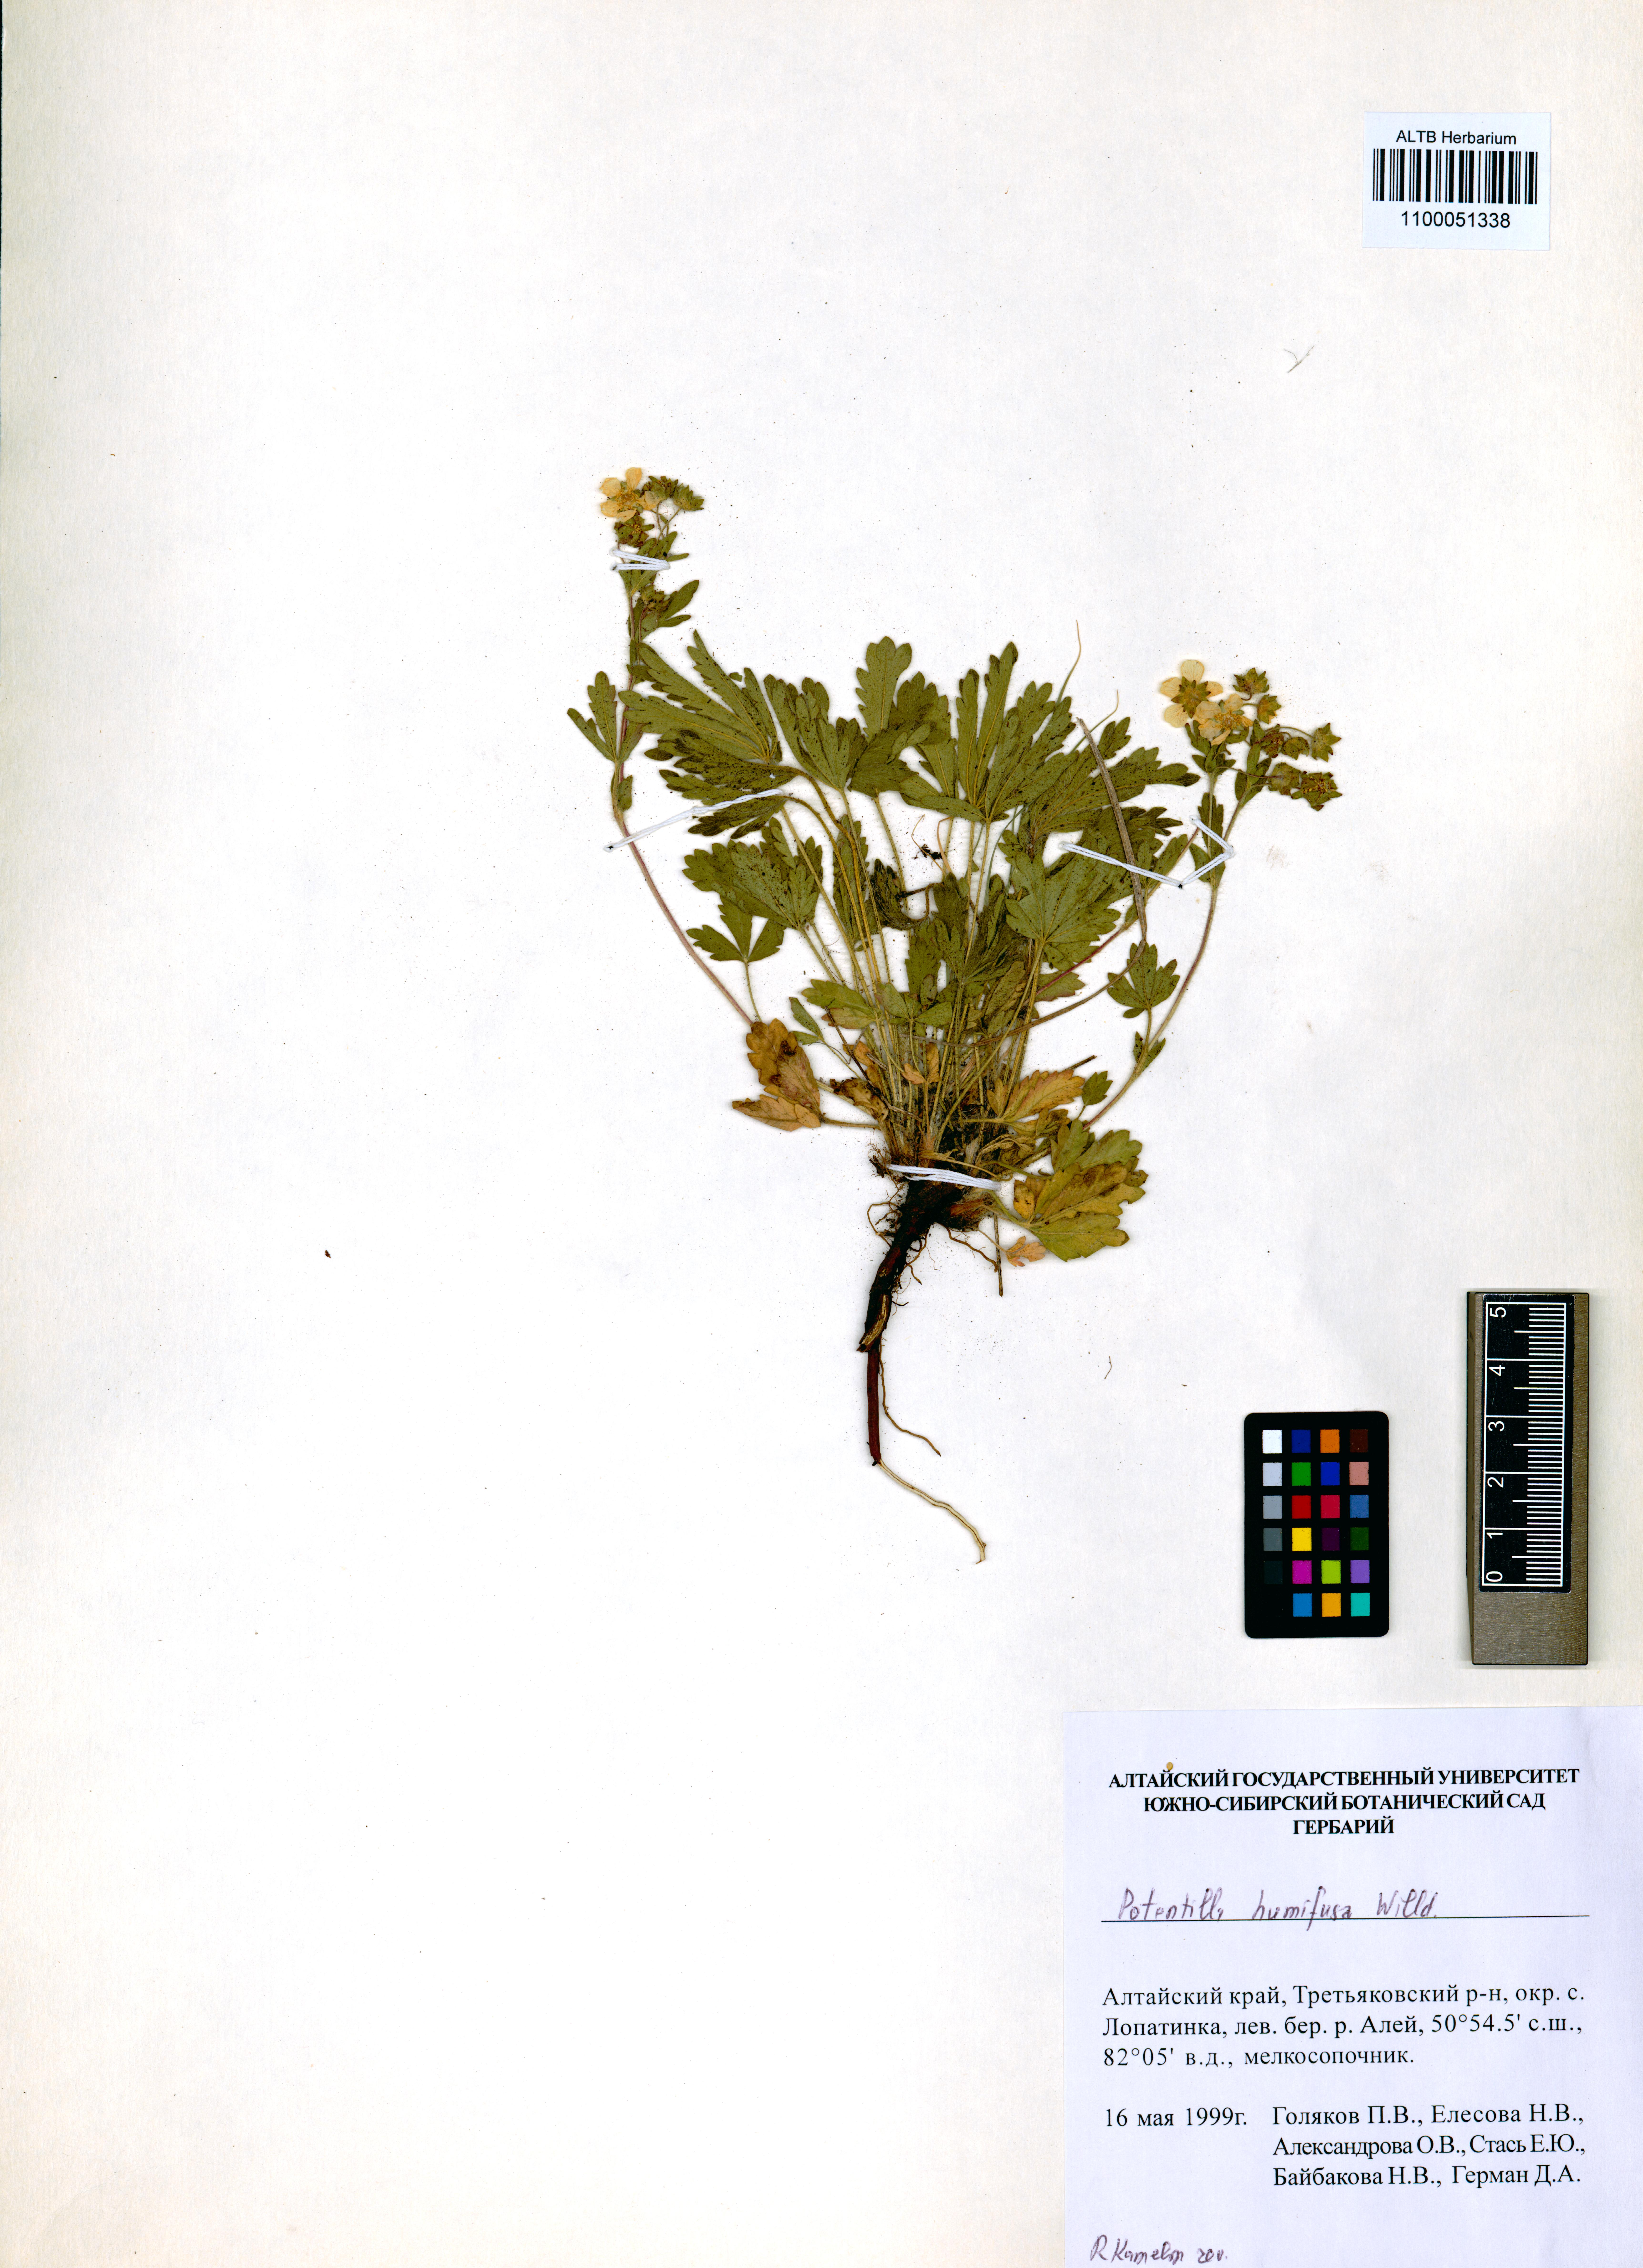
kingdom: Plantae
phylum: Tracheophyta
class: Magnoliopsida
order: Rosales
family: Rosaceae
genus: Potentilla
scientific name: Potentilla humifusa
